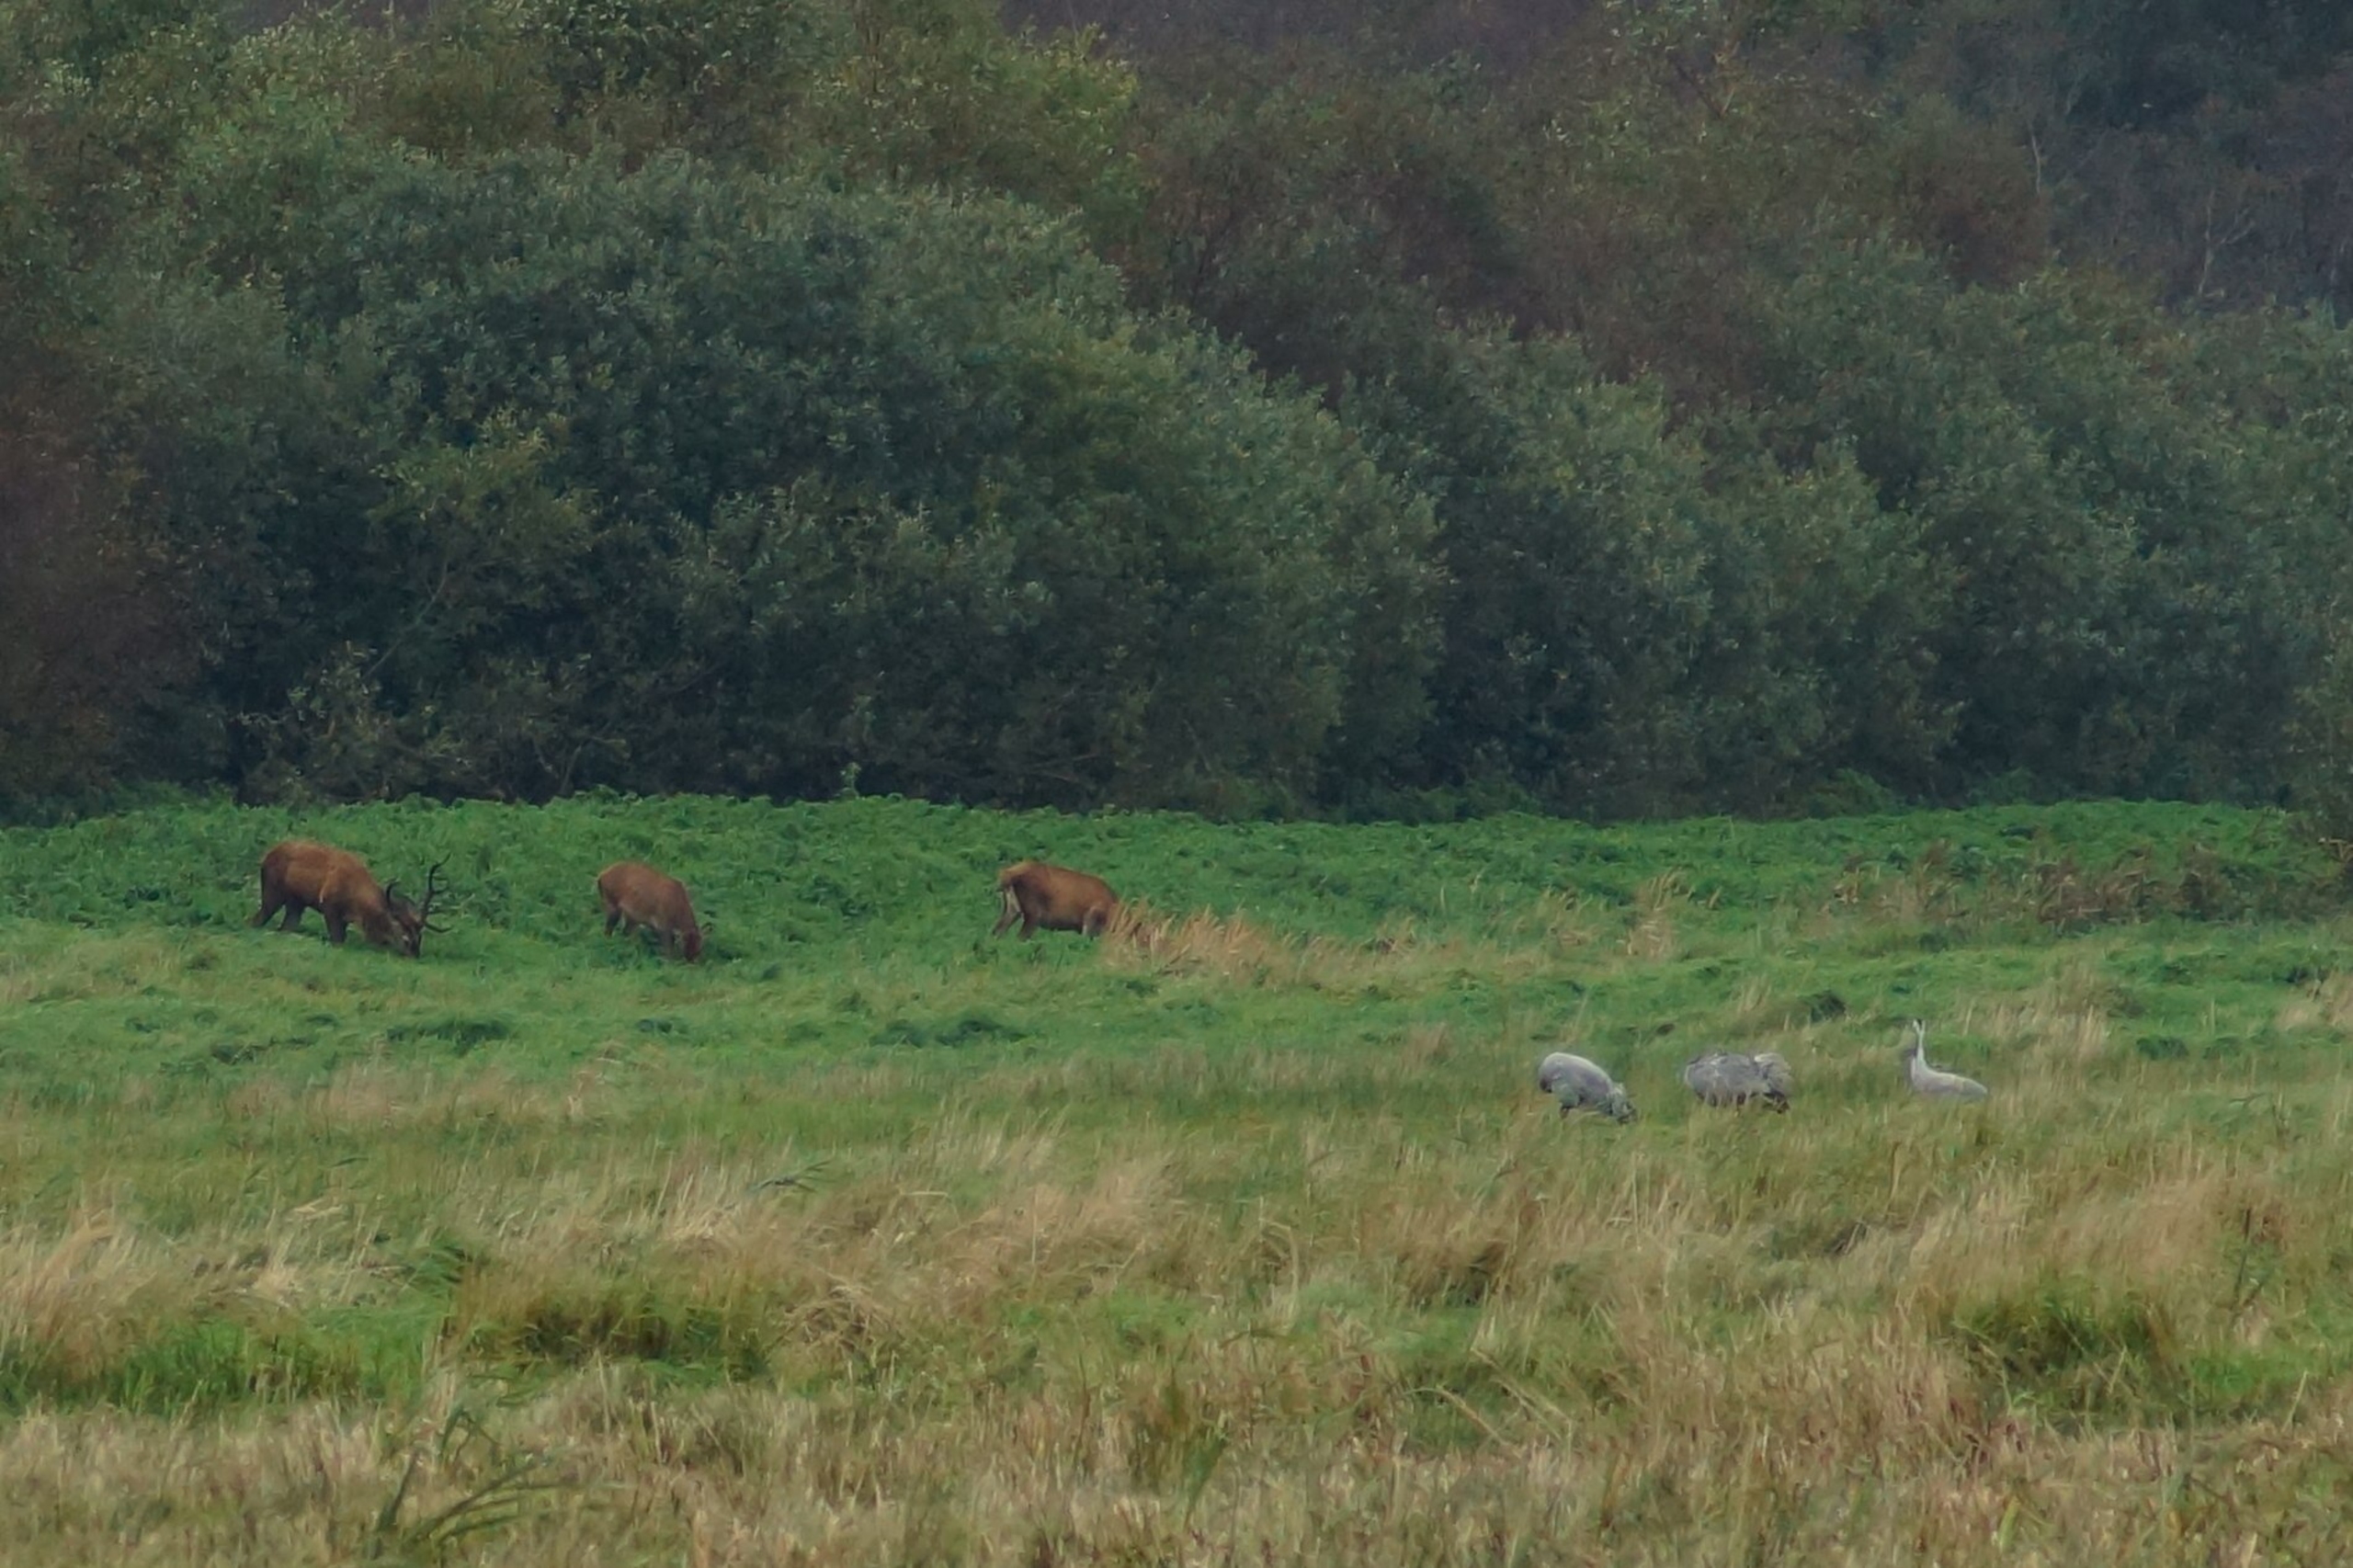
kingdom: Animalia
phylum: Chordata
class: Mammalia
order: Artiodactyla
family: Cervidae
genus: Cervus
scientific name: Cervus elaphus
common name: Krondyr
